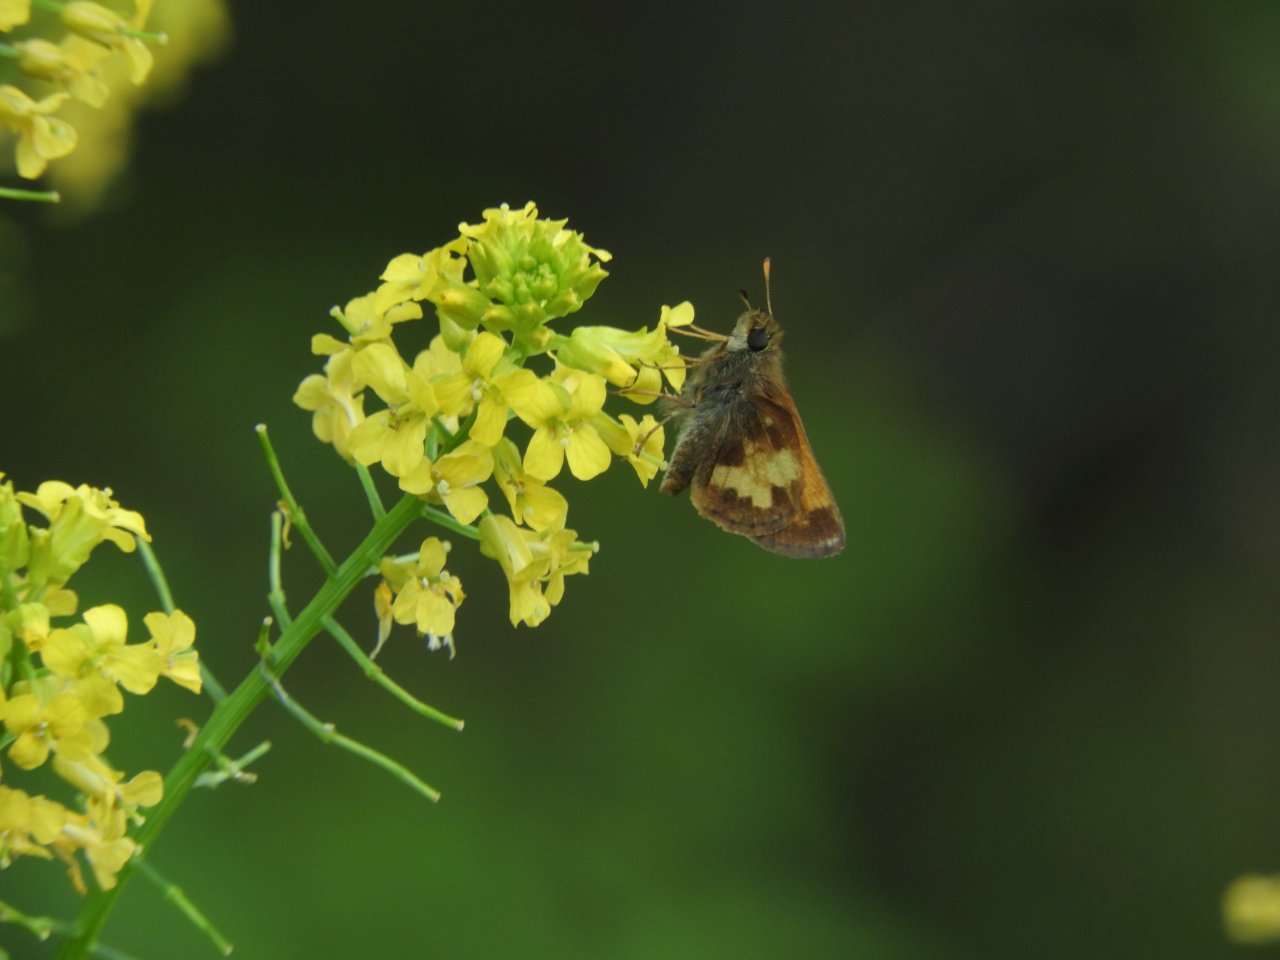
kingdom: Animalia
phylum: Arthropoda
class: Insecta
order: Lepidoptera
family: Hesperiidae
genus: Lon
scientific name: Lon hobomok
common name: Hobomok Skipper
